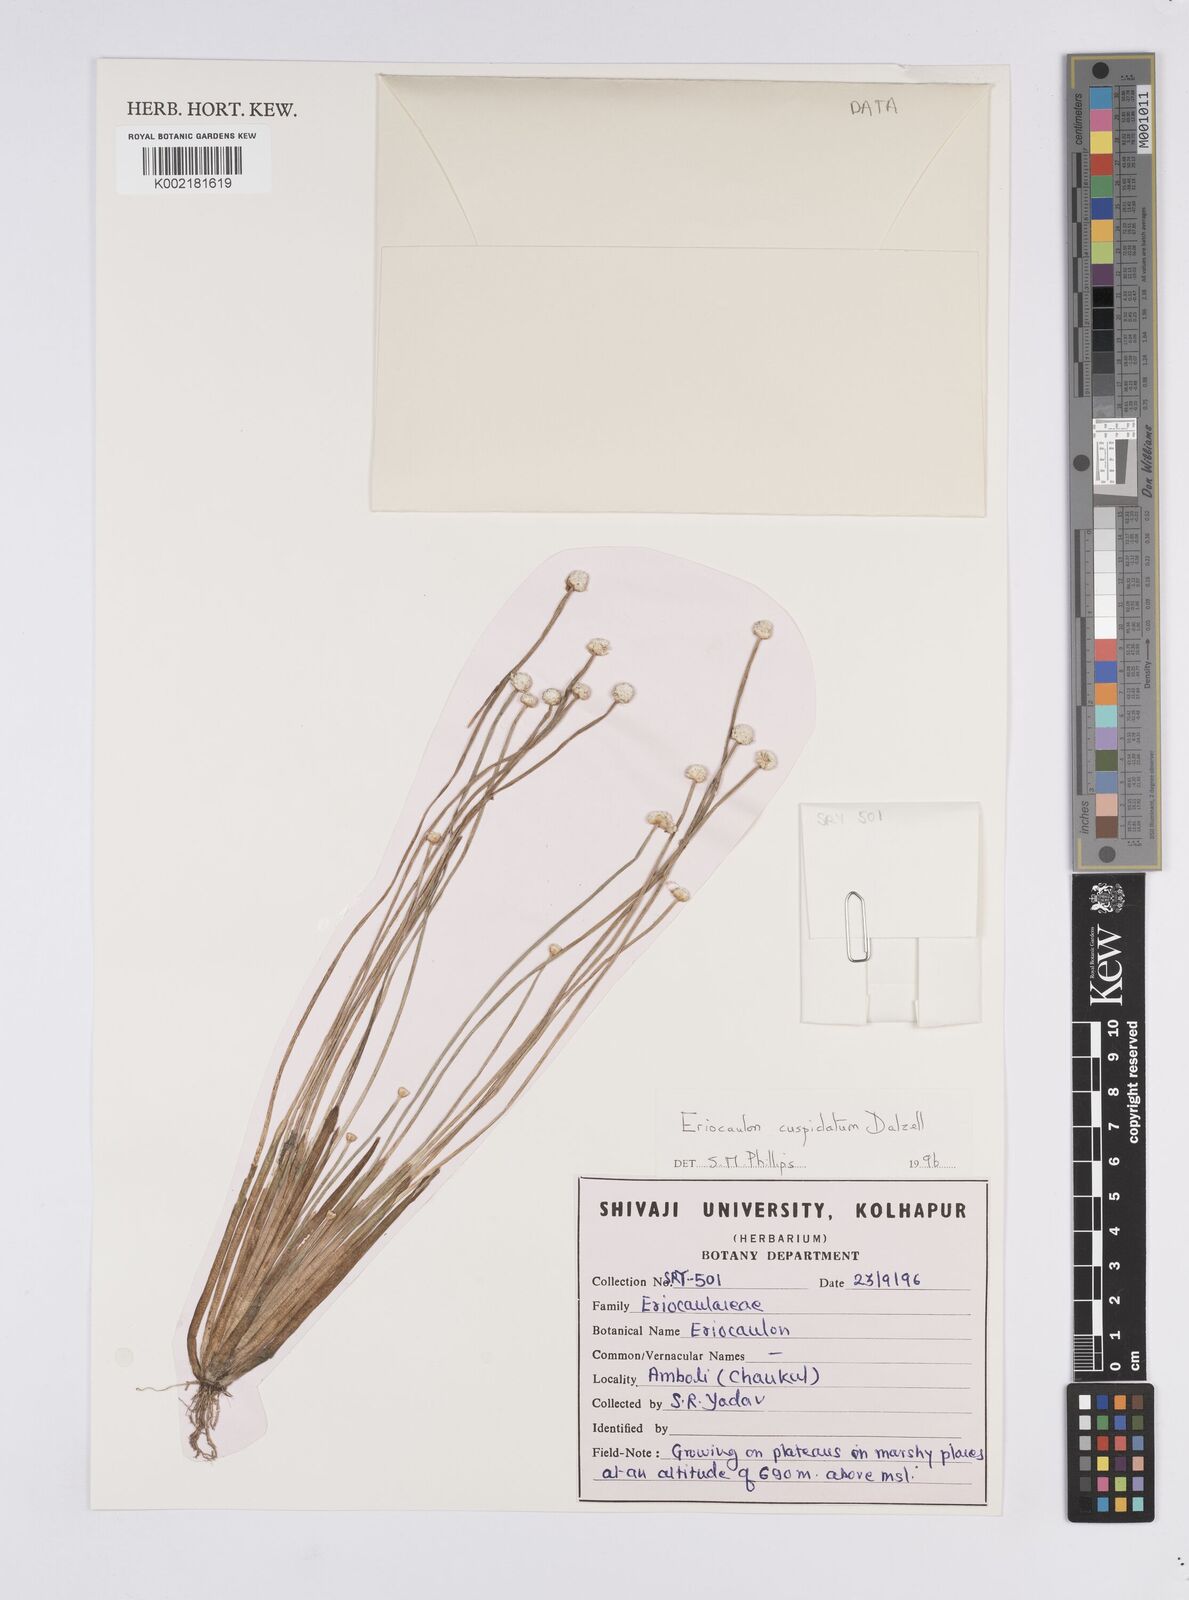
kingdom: Plantae
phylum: Tracheophyta
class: Liliopsida
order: Poales
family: Eriocaulaceae
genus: Eriocaulon
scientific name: Eriocaulon cuspidatum
